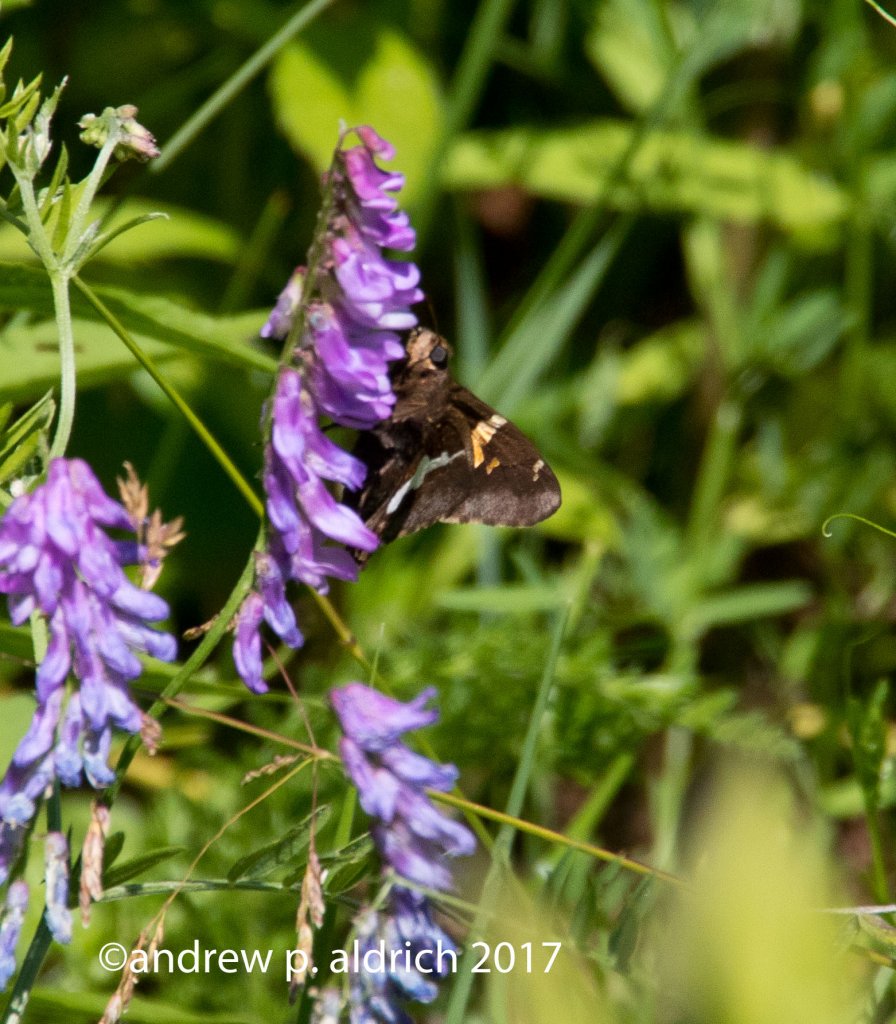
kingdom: Animalia
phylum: Arthropoda
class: Insecta
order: Lepidoptera
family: Hesperiidae
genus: Epargyreus
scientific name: Epargyreus clarus
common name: Silver-spotted Skipper
